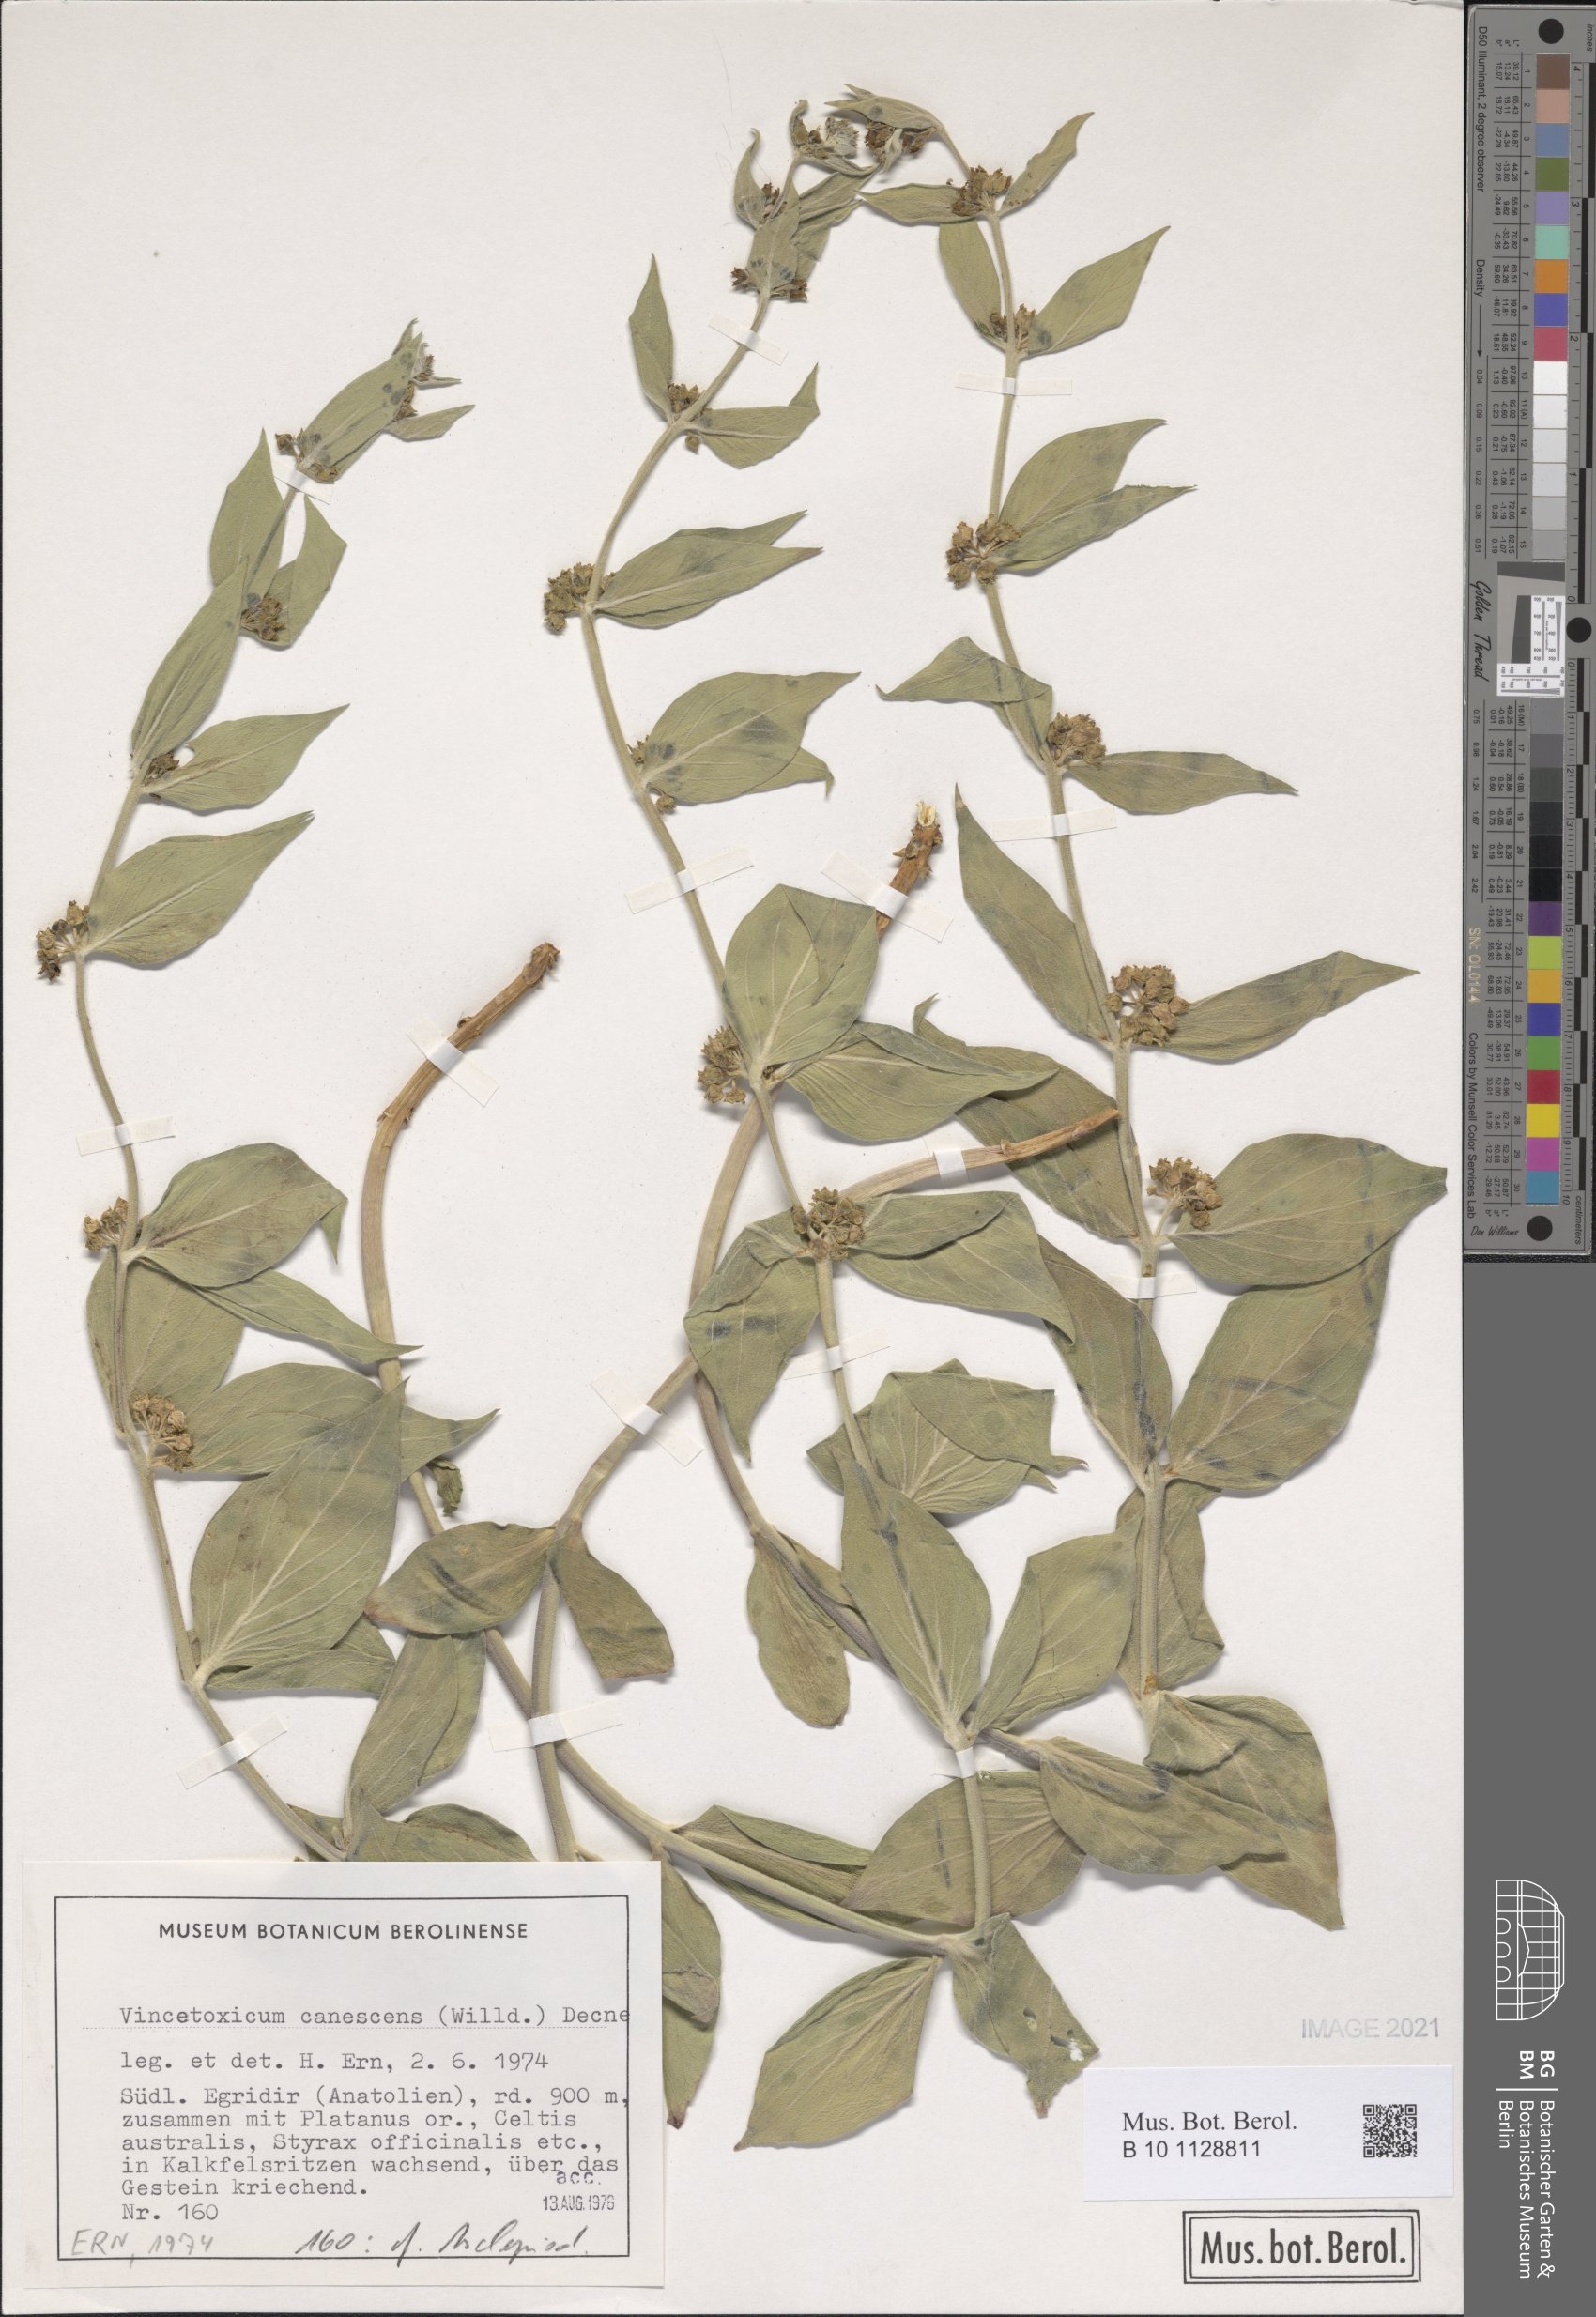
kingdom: Plantae
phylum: Tracheophyta
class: Magnoliopsida
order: Gentianales
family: Apocynaceae
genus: Vincetoxicum
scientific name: Vincetoxicum canescens
